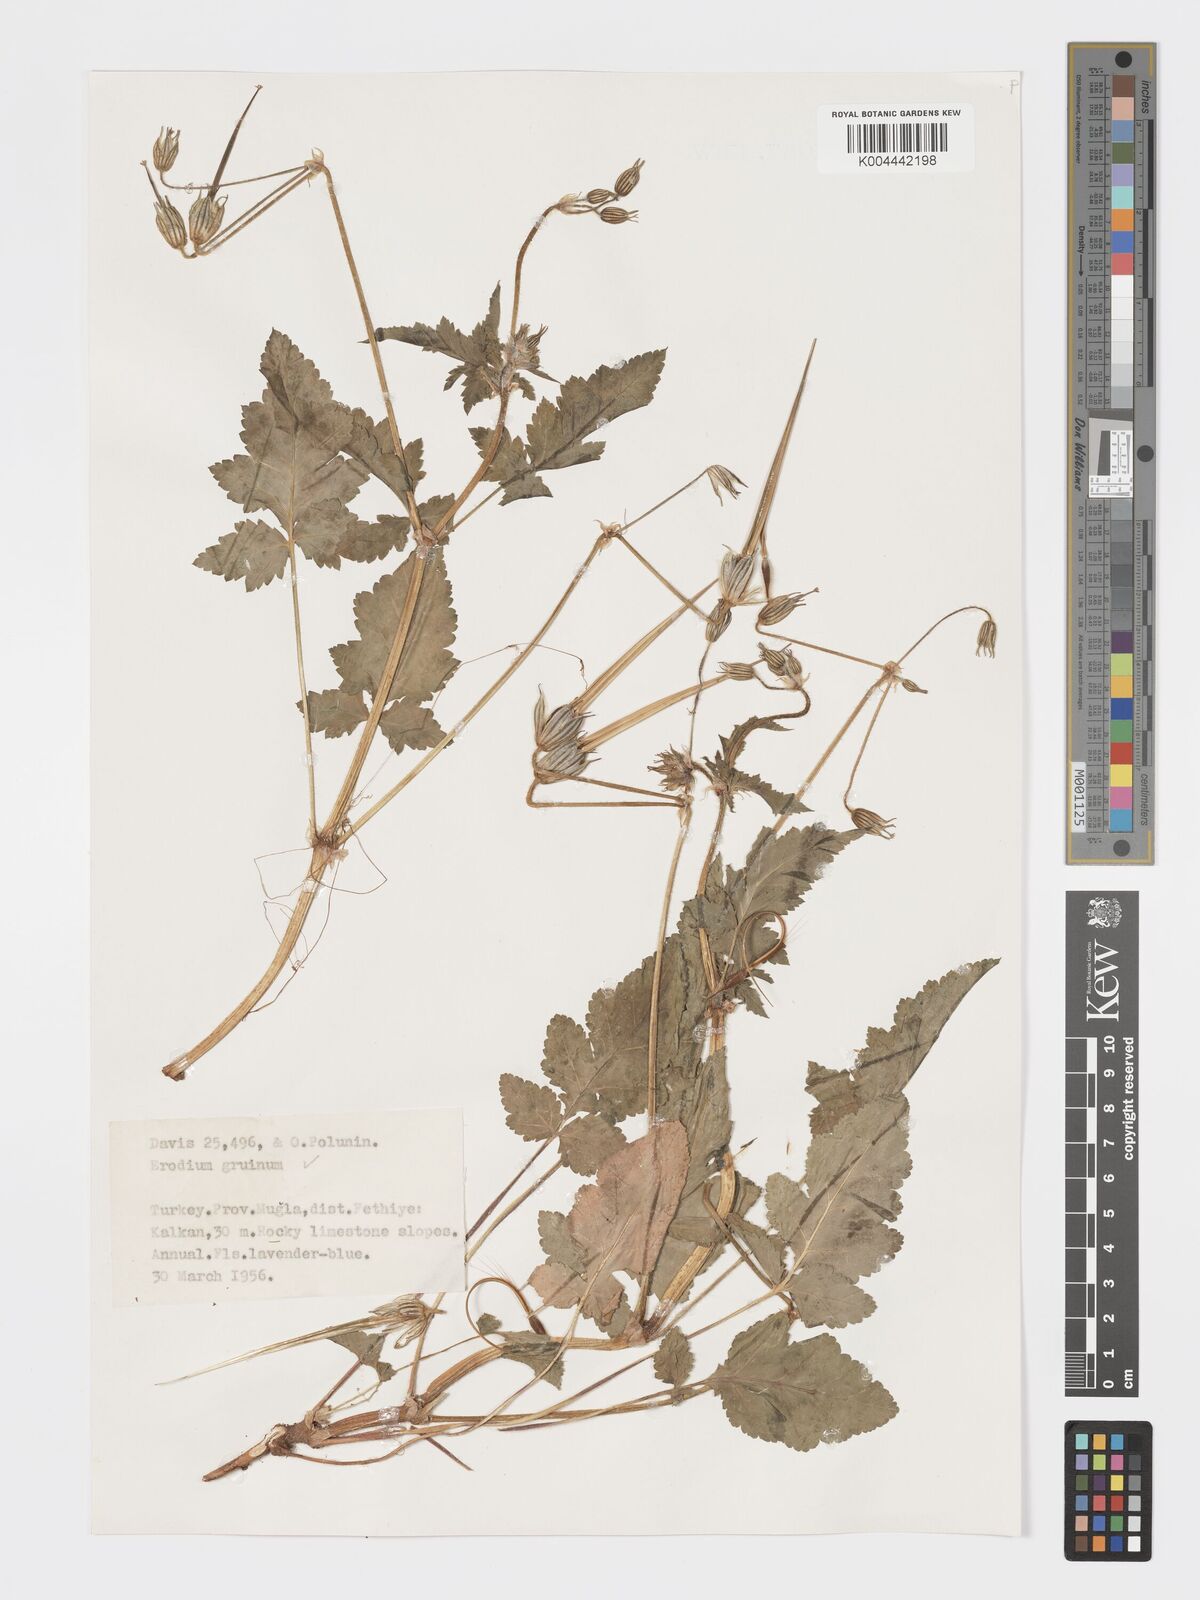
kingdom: Plantae
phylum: Tracheophyta
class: Magnoliopsida
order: Geraniales
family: Geraniaceae
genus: Erodium
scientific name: Erodium gruinum
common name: Iranian stork's bill
